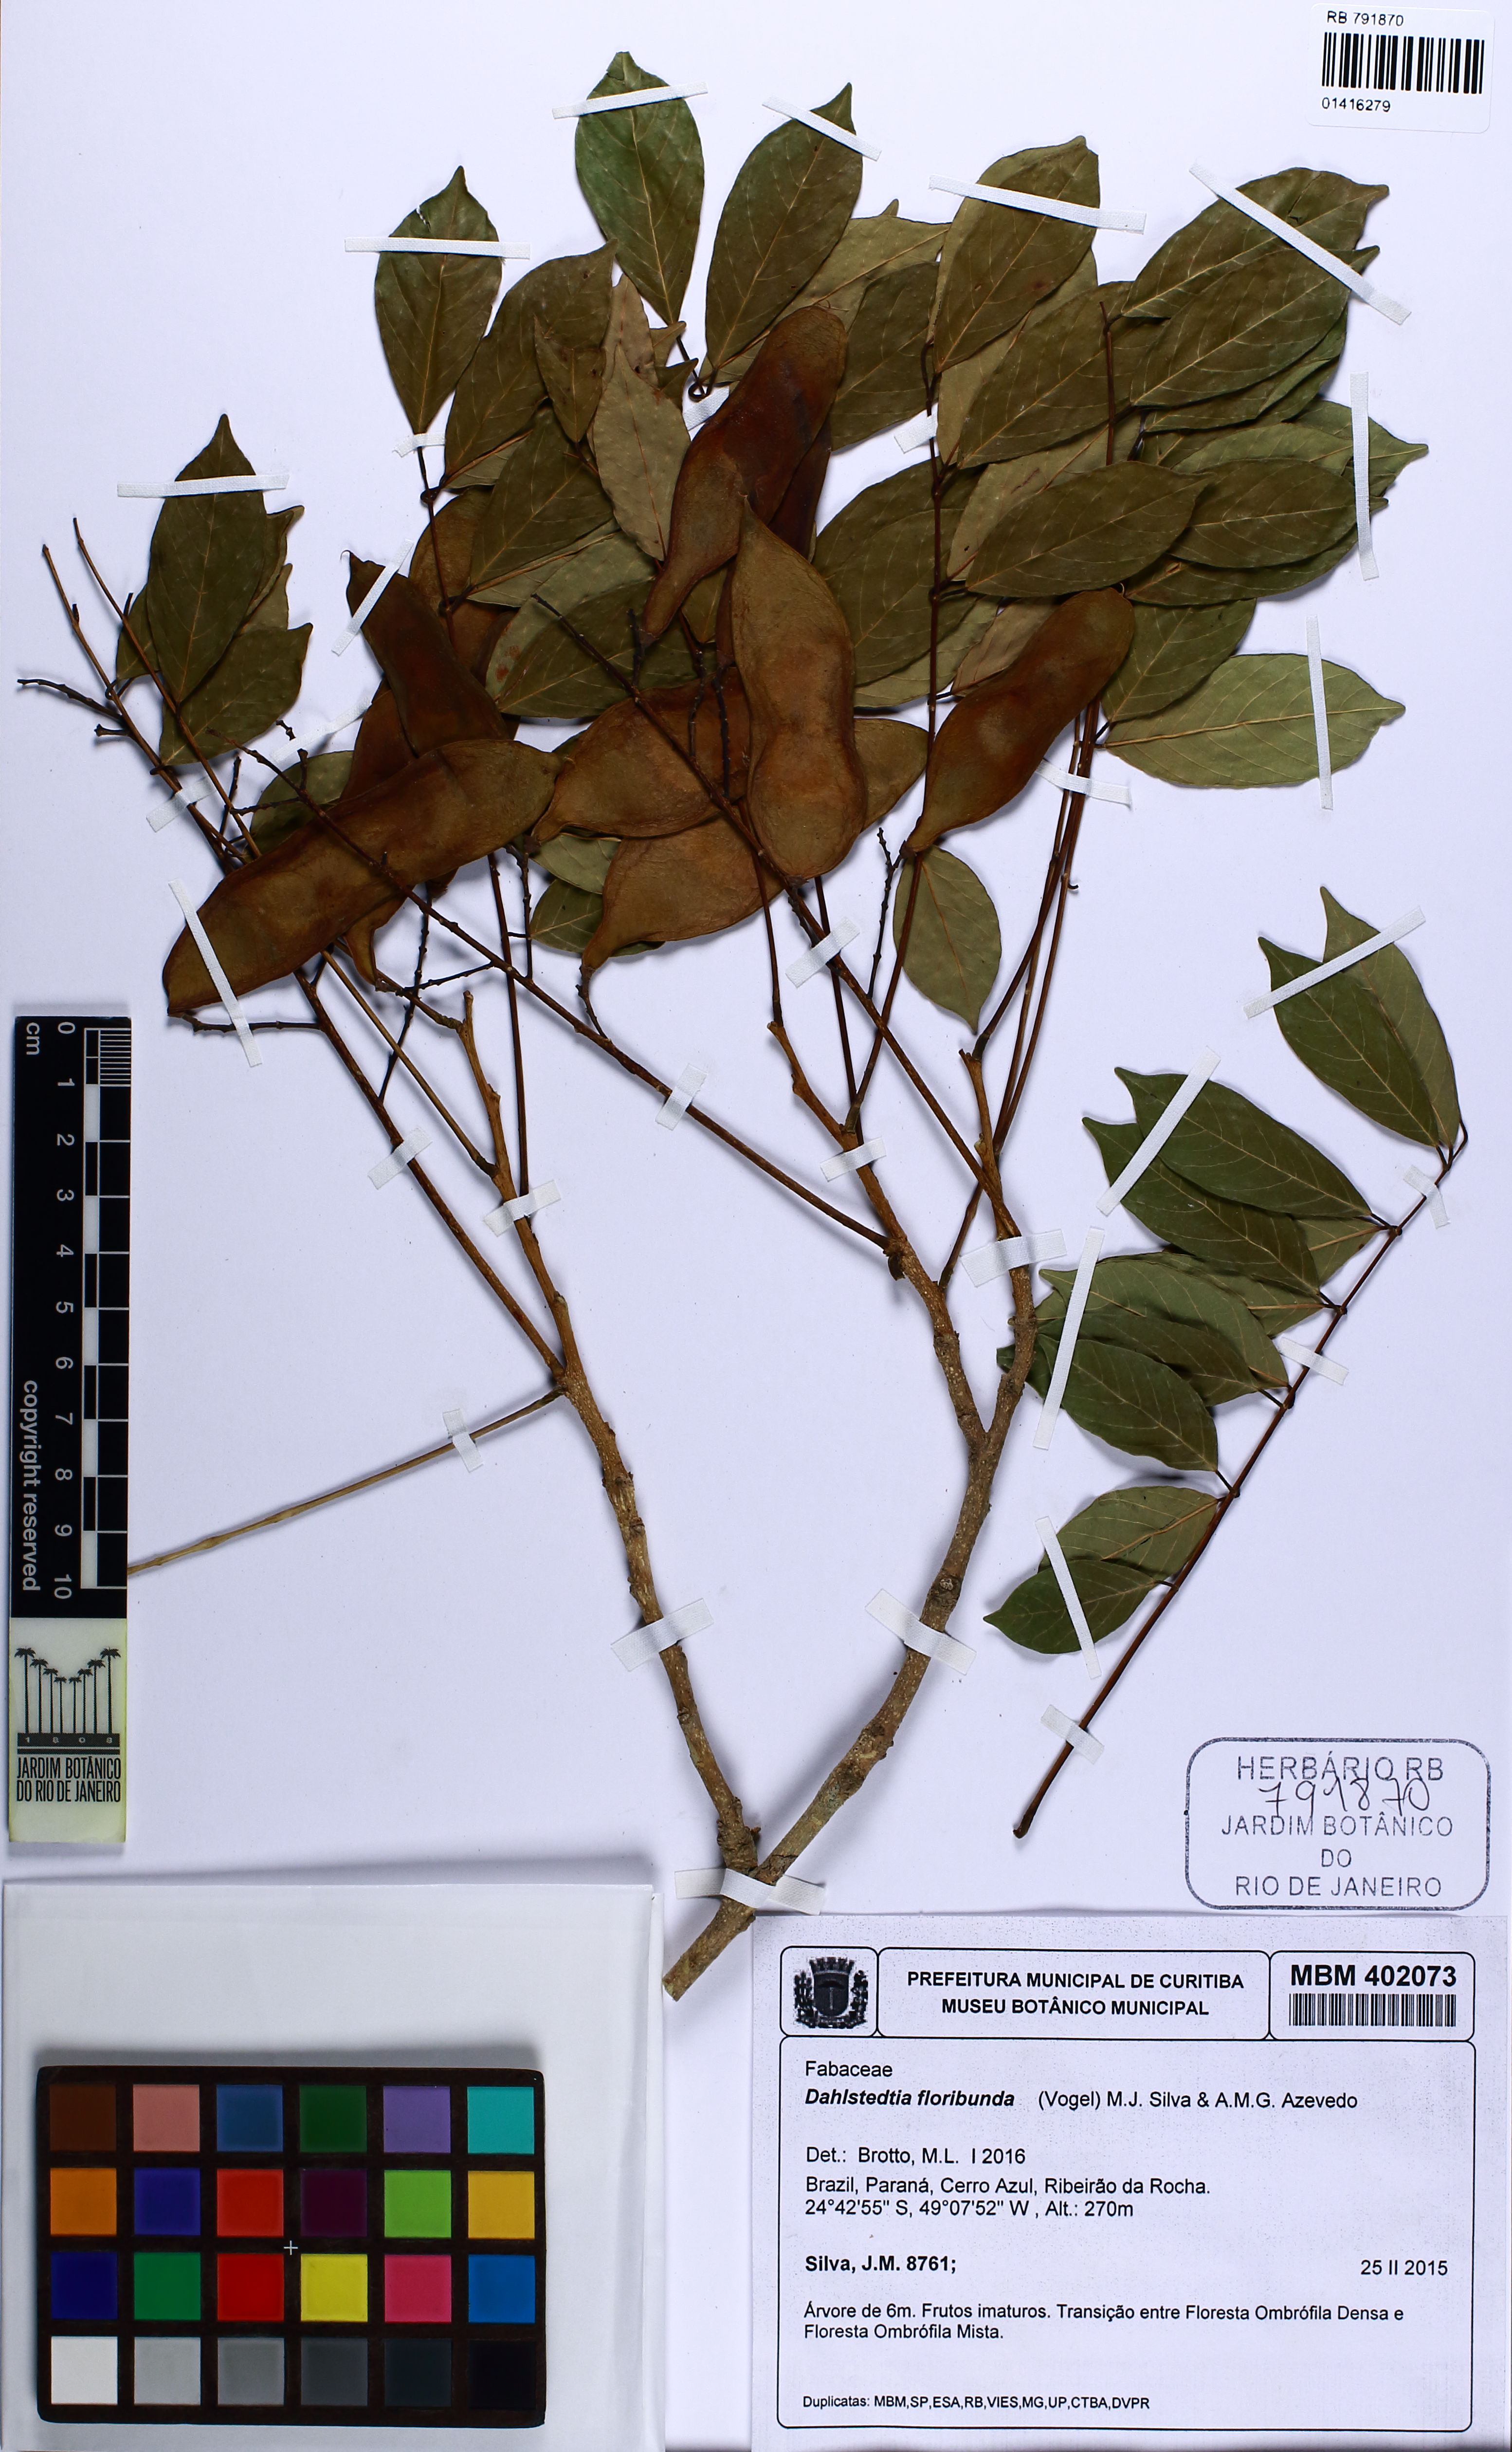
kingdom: Plantae
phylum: Tracheophyta
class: Magnoliopsida
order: Fabales
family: Fabaceae
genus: Dahlstedtia
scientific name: Dahlstedtia floribunda
